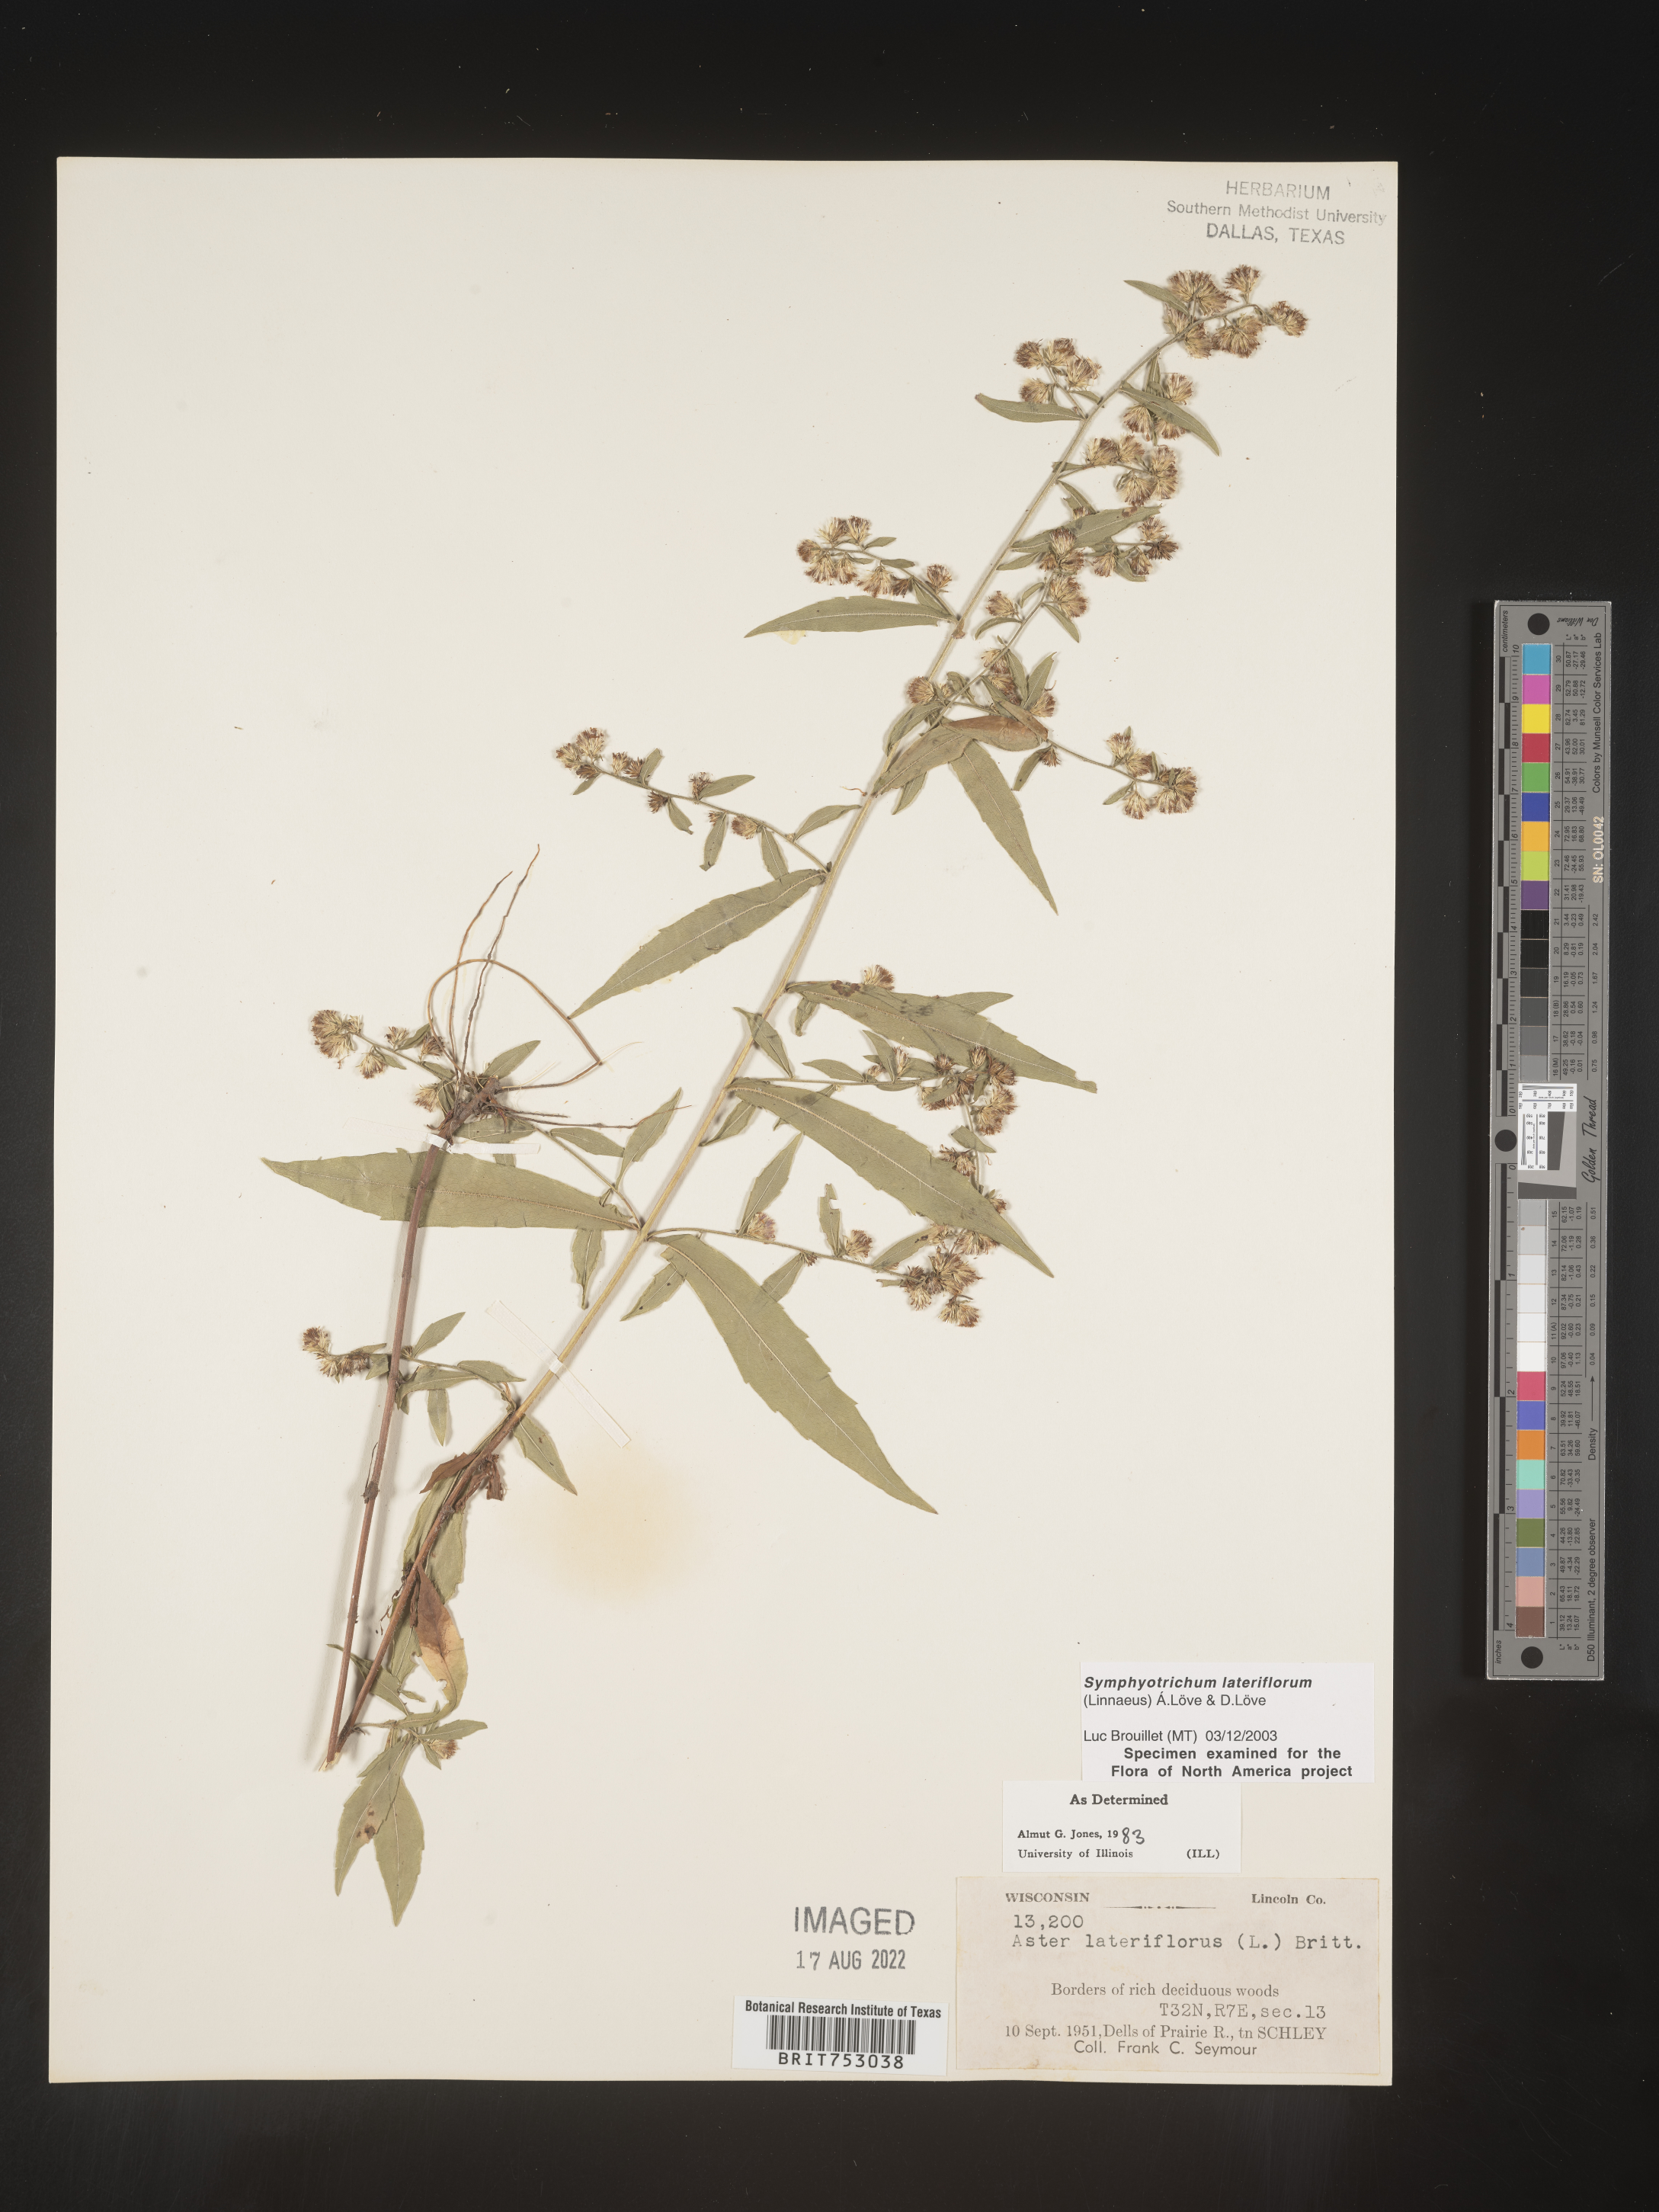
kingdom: Plantae
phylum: Tracheophyta
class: Magnoliopsida
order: Asterales
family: Asteraceae
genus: Symphyotrichum
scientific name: Symphyotrichum lateriflorum
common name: Calico aster
